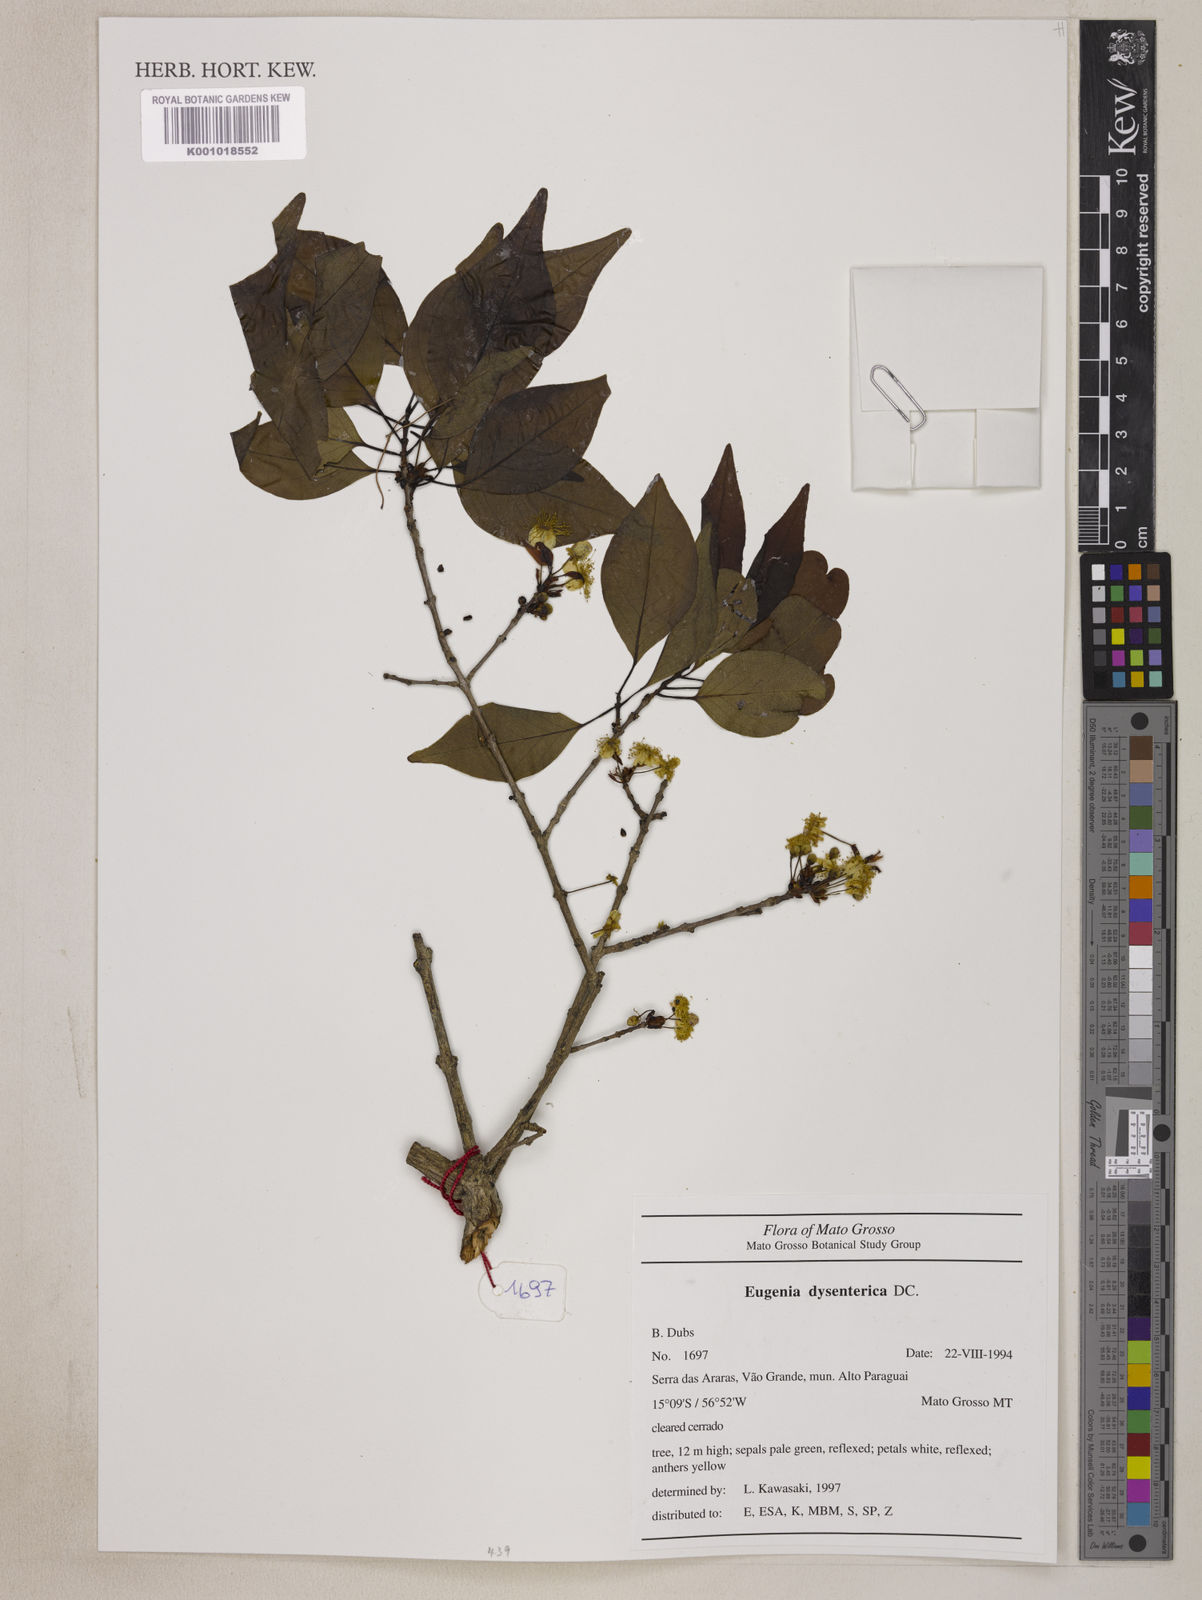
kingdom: Plantae
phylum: Tracheophyta
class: Magnoliopsida
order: Myrtales
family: Myrtaceae
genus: Eugenia
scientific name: Eugenia dysenterica
